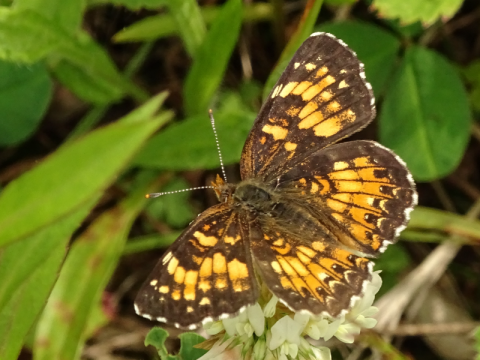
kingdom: Animalia
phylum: Arthropoda
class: Insecta
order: Lepidoptera
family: Nymphalidae
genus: Chlosyne
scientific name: Chlosyne harrisii
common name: Harris's Checkerspot
